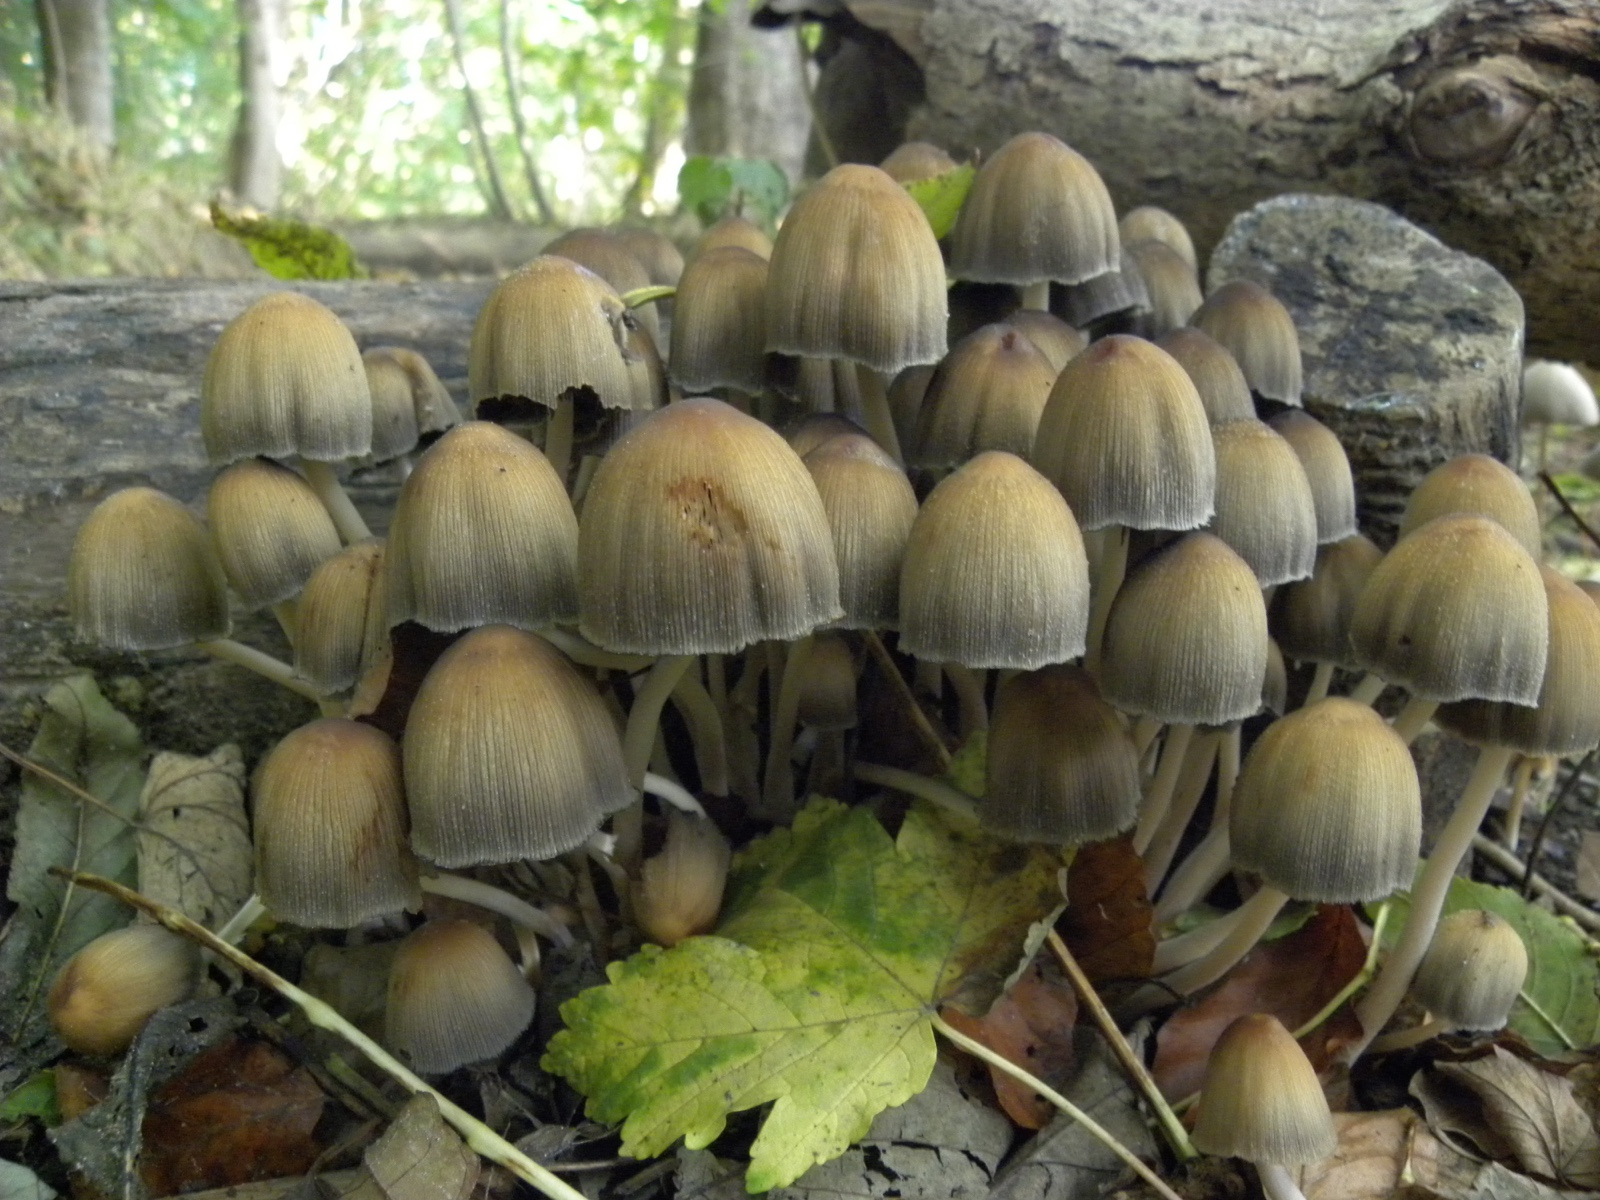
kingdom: Fungi
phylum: Basidiomycota
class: Agaricomycetes
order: Agaricales
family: Psathyrellaceae
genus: Coprinellus
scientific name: Coprinellus
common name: blækhat
